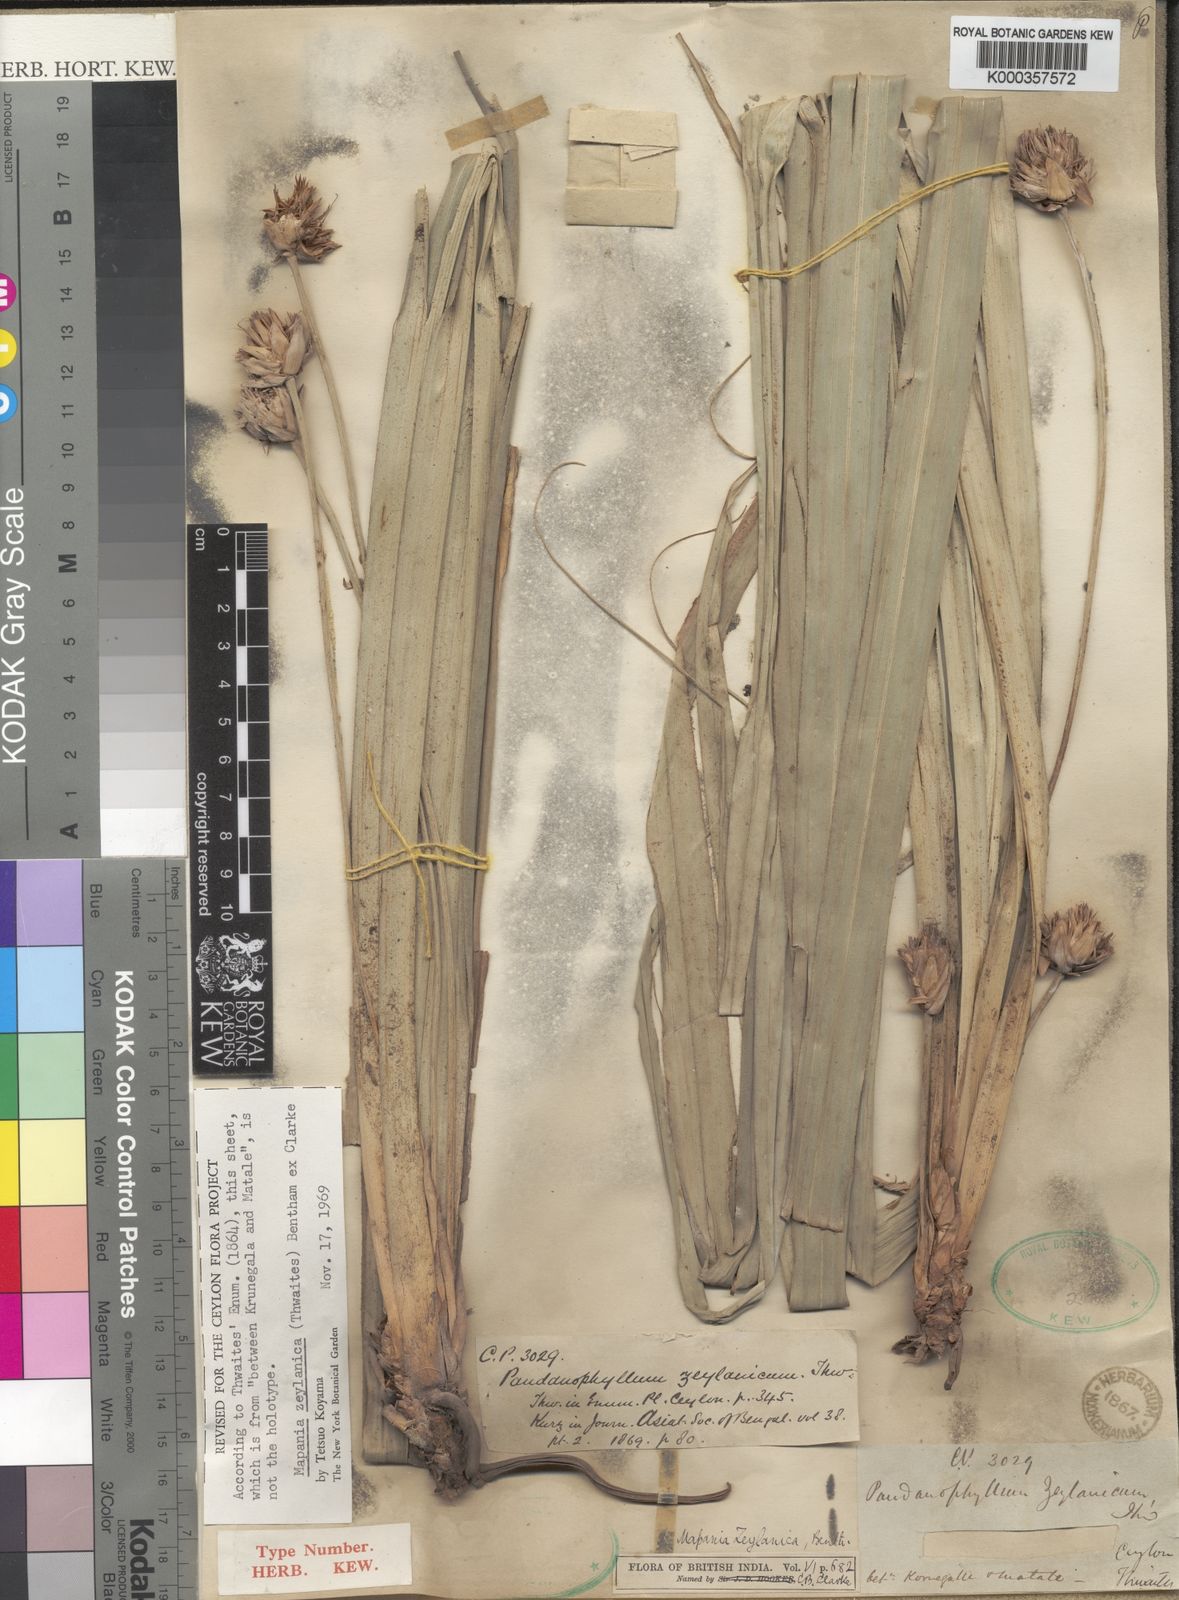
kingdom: Plantae
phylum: Tracheophyta
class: Liliopsida
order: Poales
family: Cyperaceae
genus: Mapania
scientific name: Mapania
